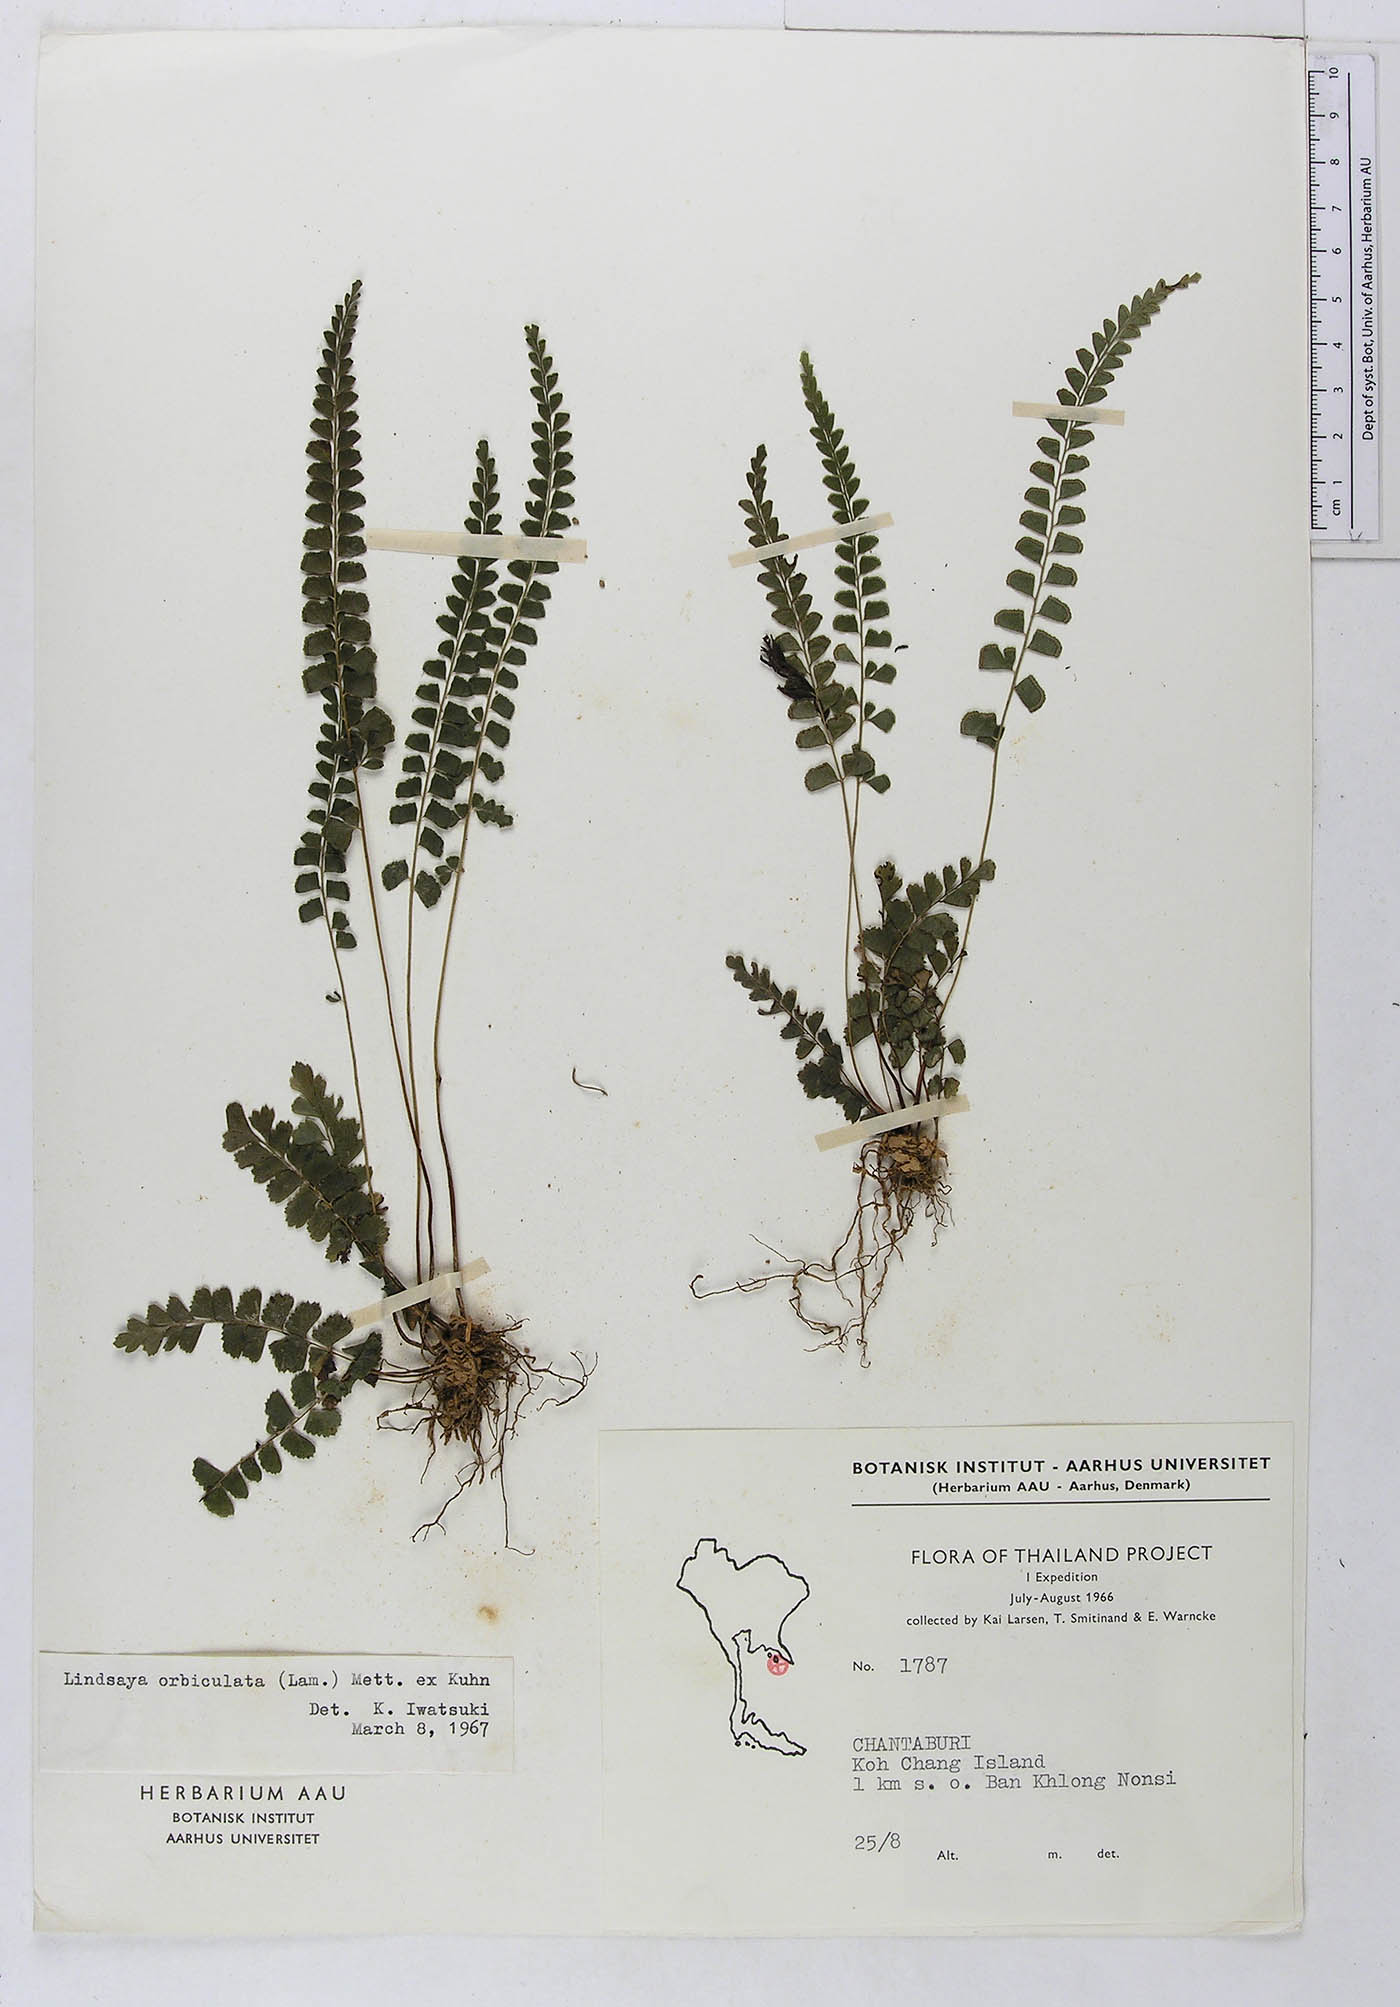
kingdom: Plantae
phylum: Tracheophyta
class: Polypodiopsida
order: Polypodiales
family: Lindsaeaceae
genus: Lindsaea
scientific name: Lindsaea orbiculata
